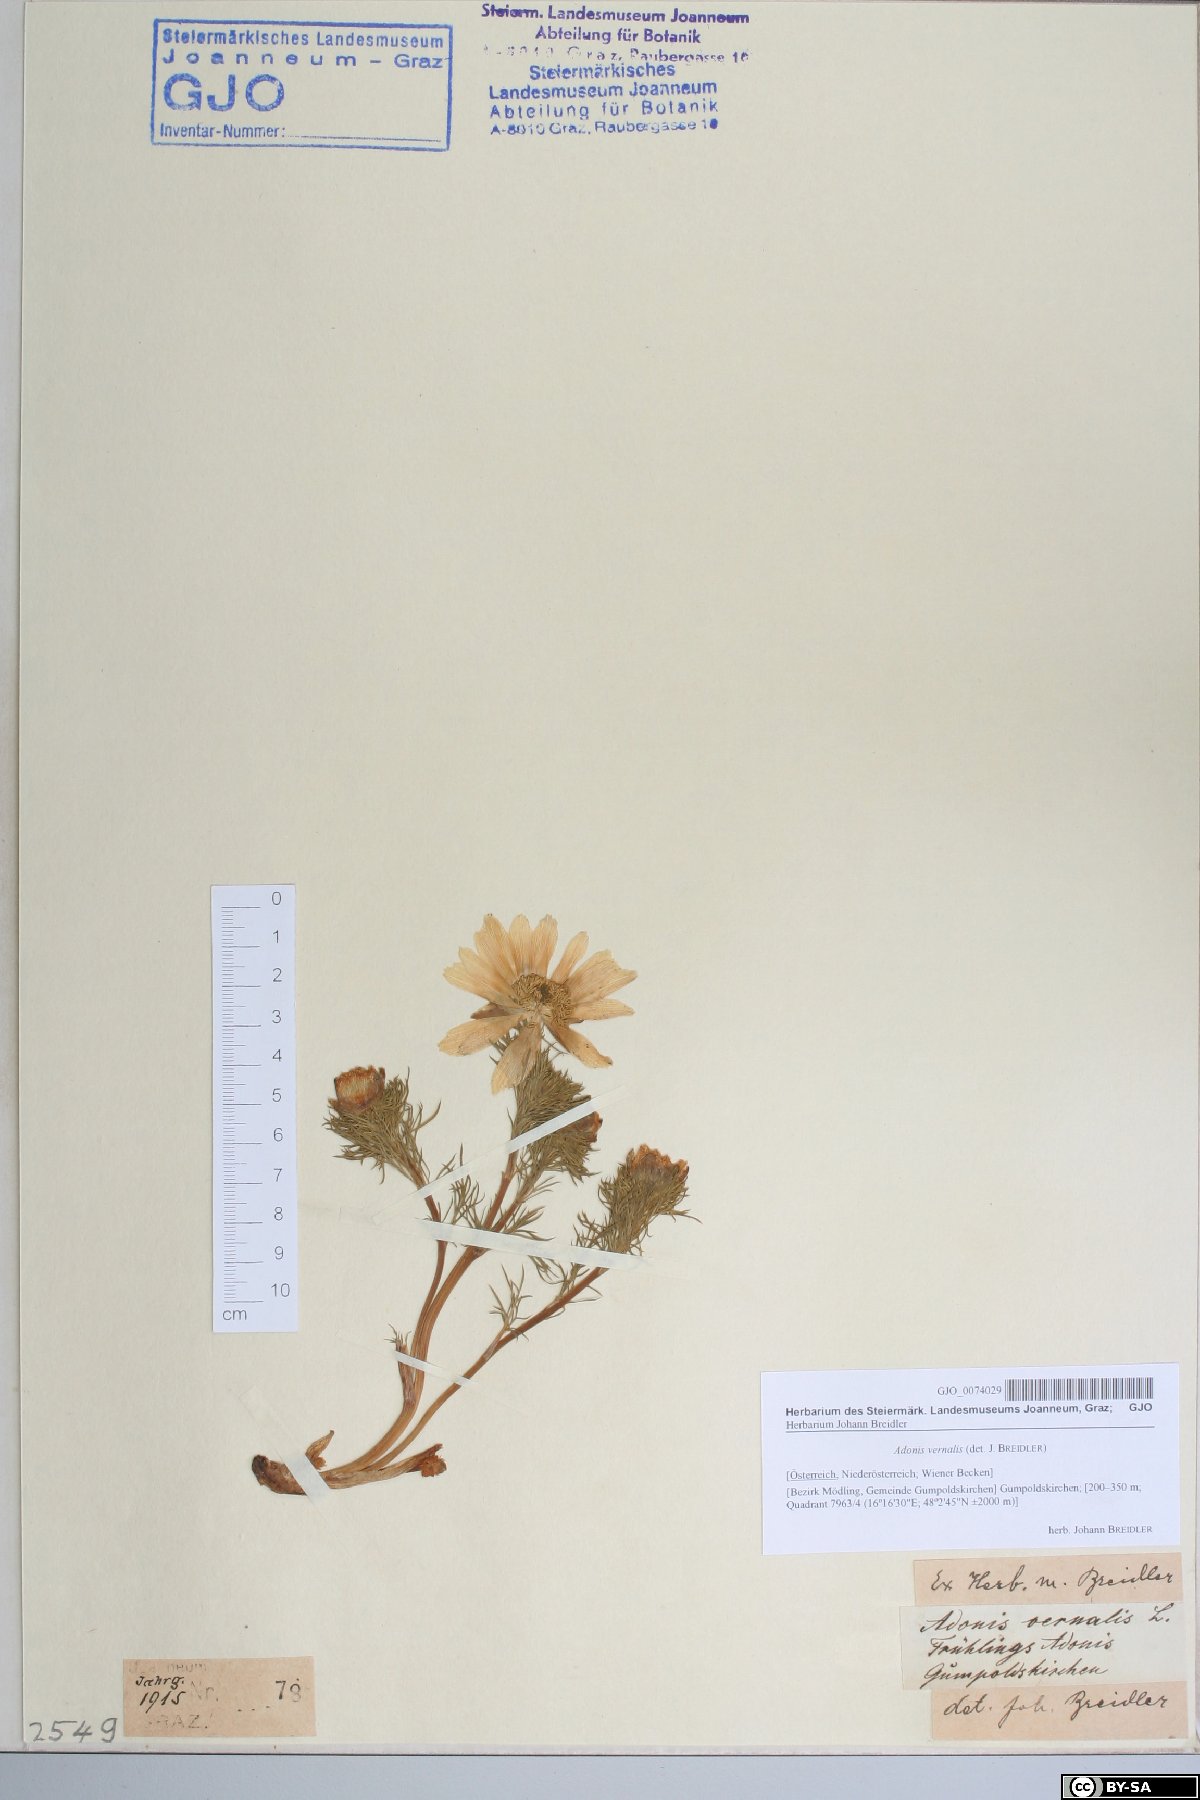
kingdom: Plantae
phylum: Tracheophyta
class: Magnoliopsida
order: Ranunculales
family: Ranunculaceae
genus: Adonis
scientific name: Adonis vernalis
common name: Yellow pheasants-eye
